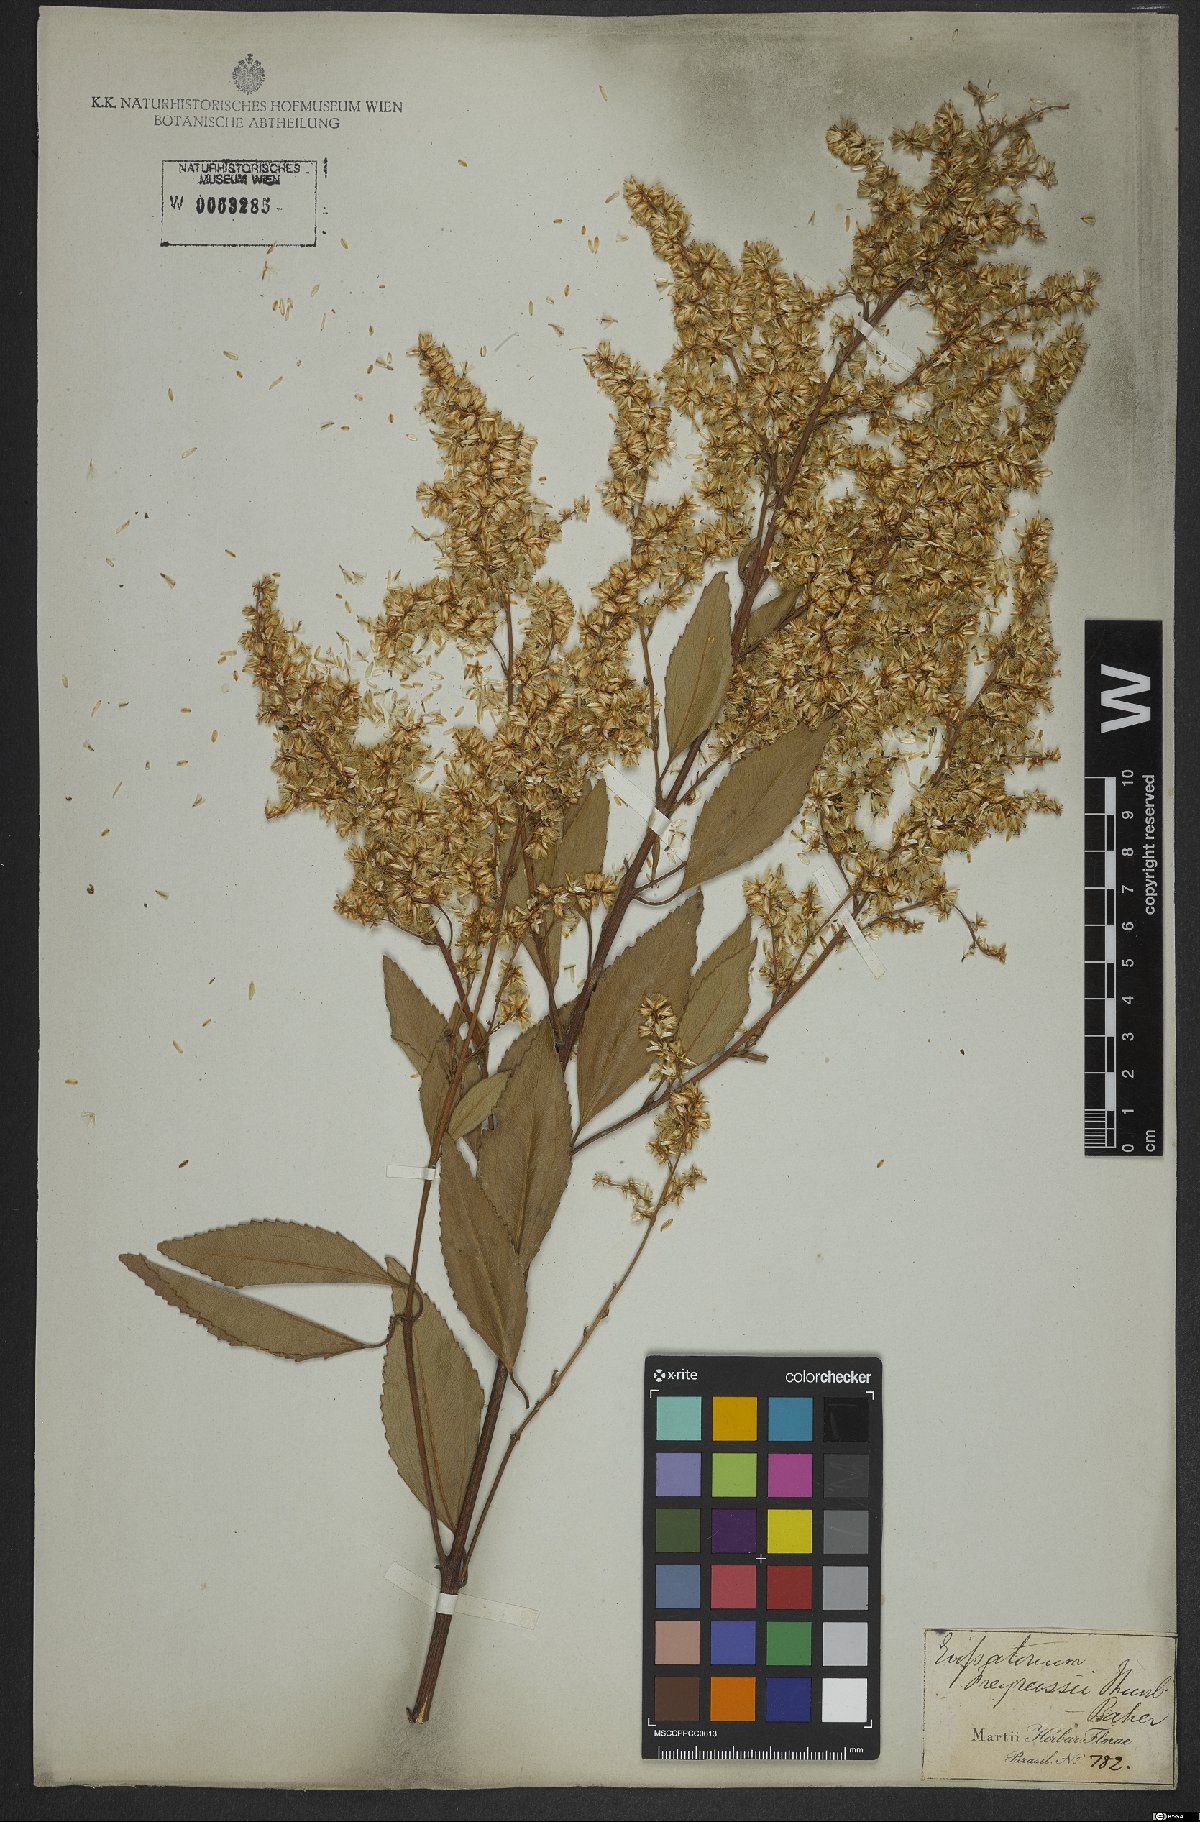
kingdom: Plantae
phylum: Tracheophyta
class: Magnoliopsida
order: Asterales
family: Asteraceae
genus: Ophryosporus
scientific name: Ophryosporus freyreysi
